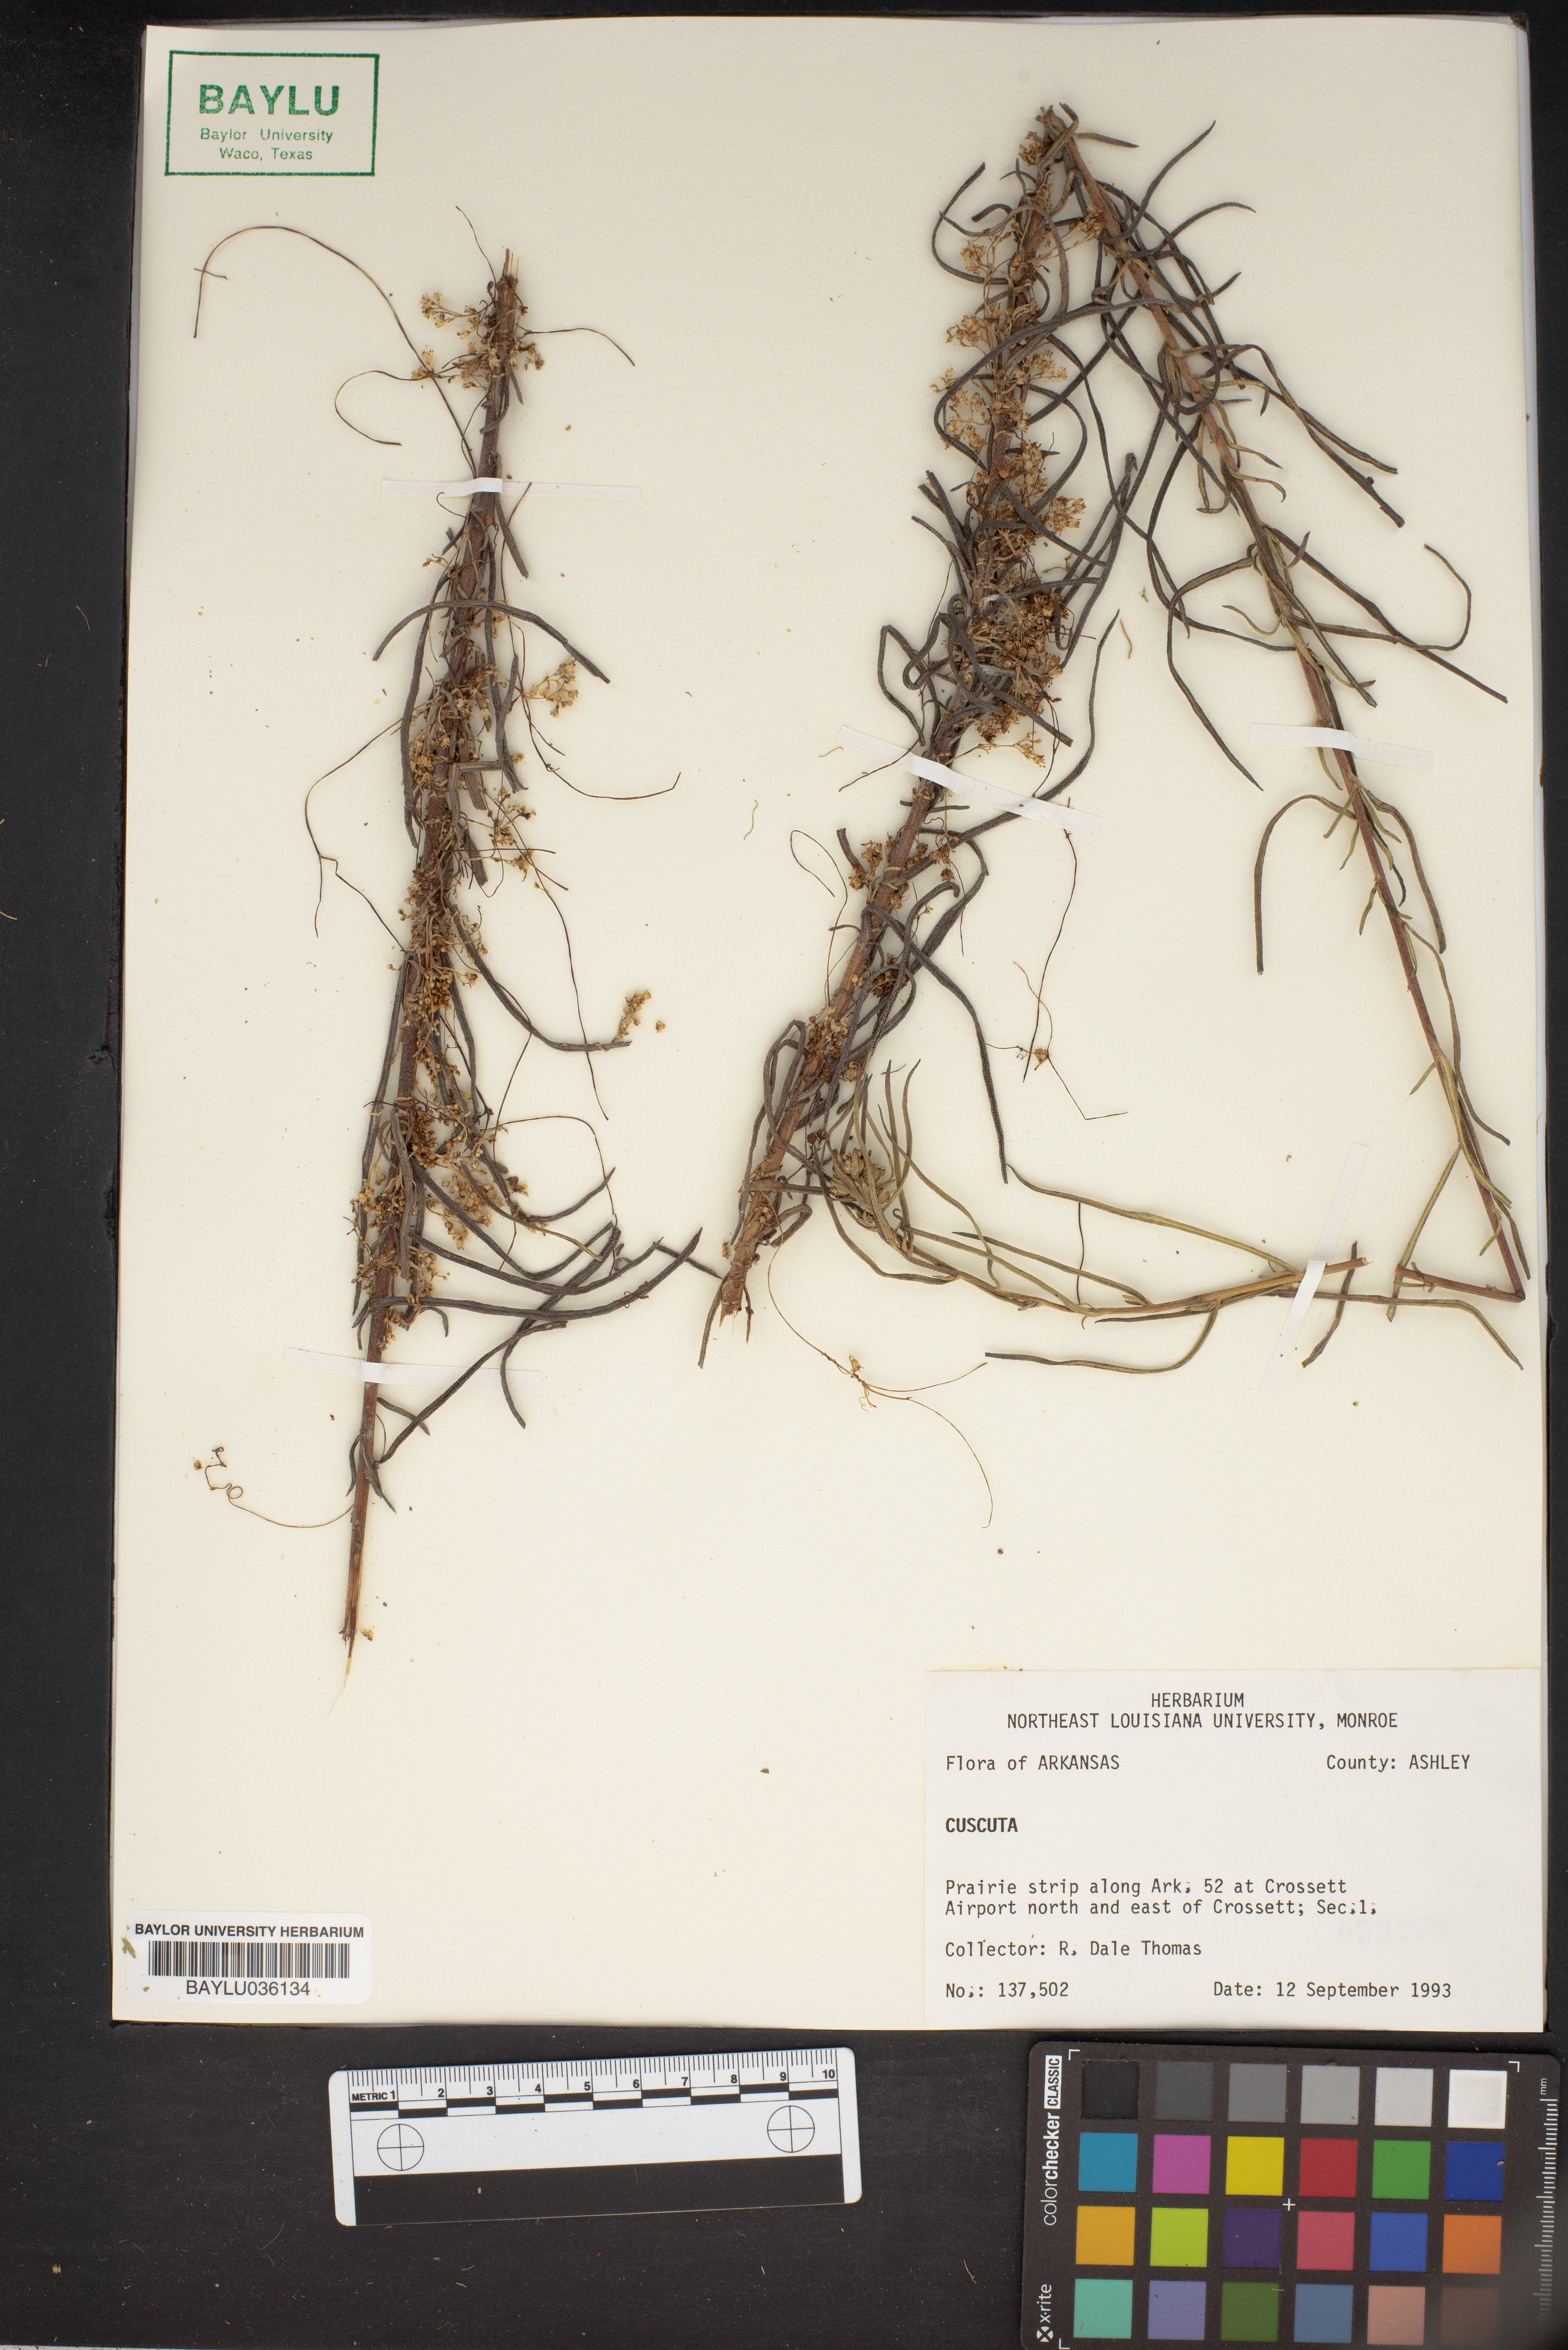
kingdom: Plantae
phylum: Tracheophyta
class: Magnoliopsida
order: Solanales
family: Convolvulaceae
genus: Cuscuta
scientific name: Cuscuta
